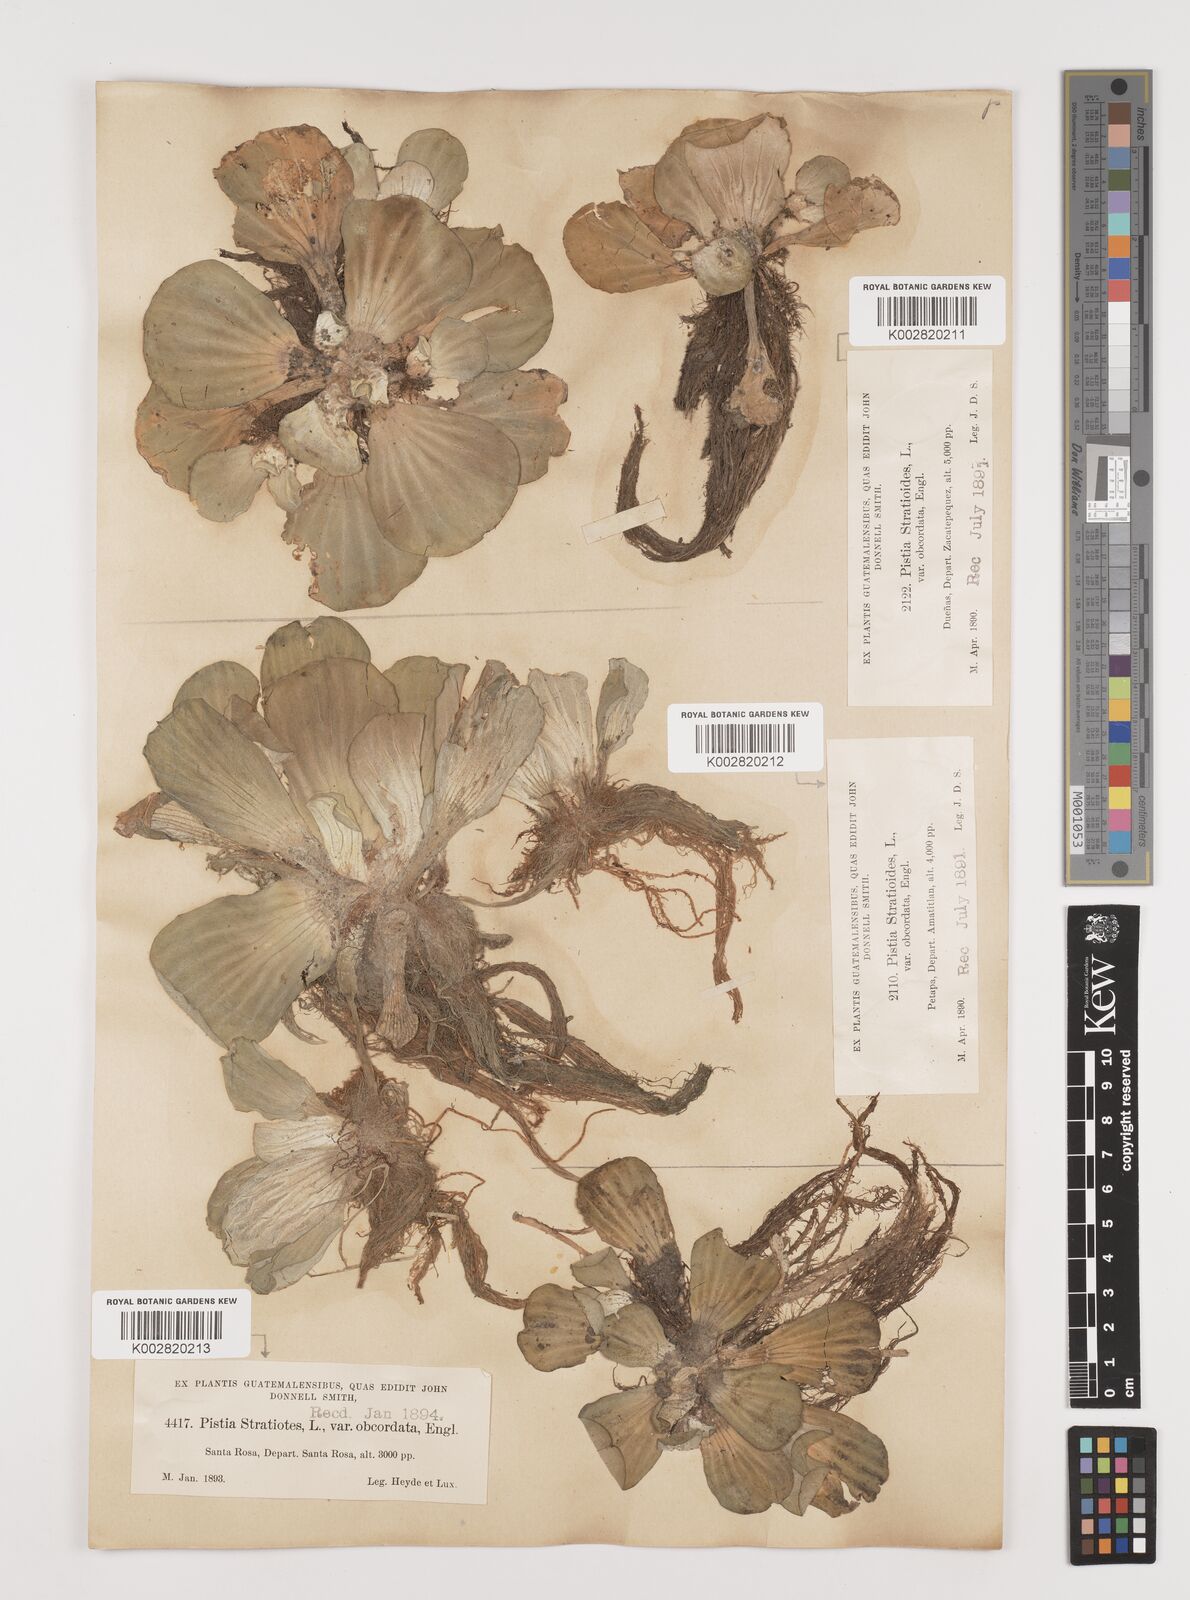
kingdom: Plantae
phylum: Tracheophyta
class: Liliopsida
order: Alismatales
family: Araceae
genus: Pistia
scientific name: Pistia stratiotes
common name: Water lettuce
